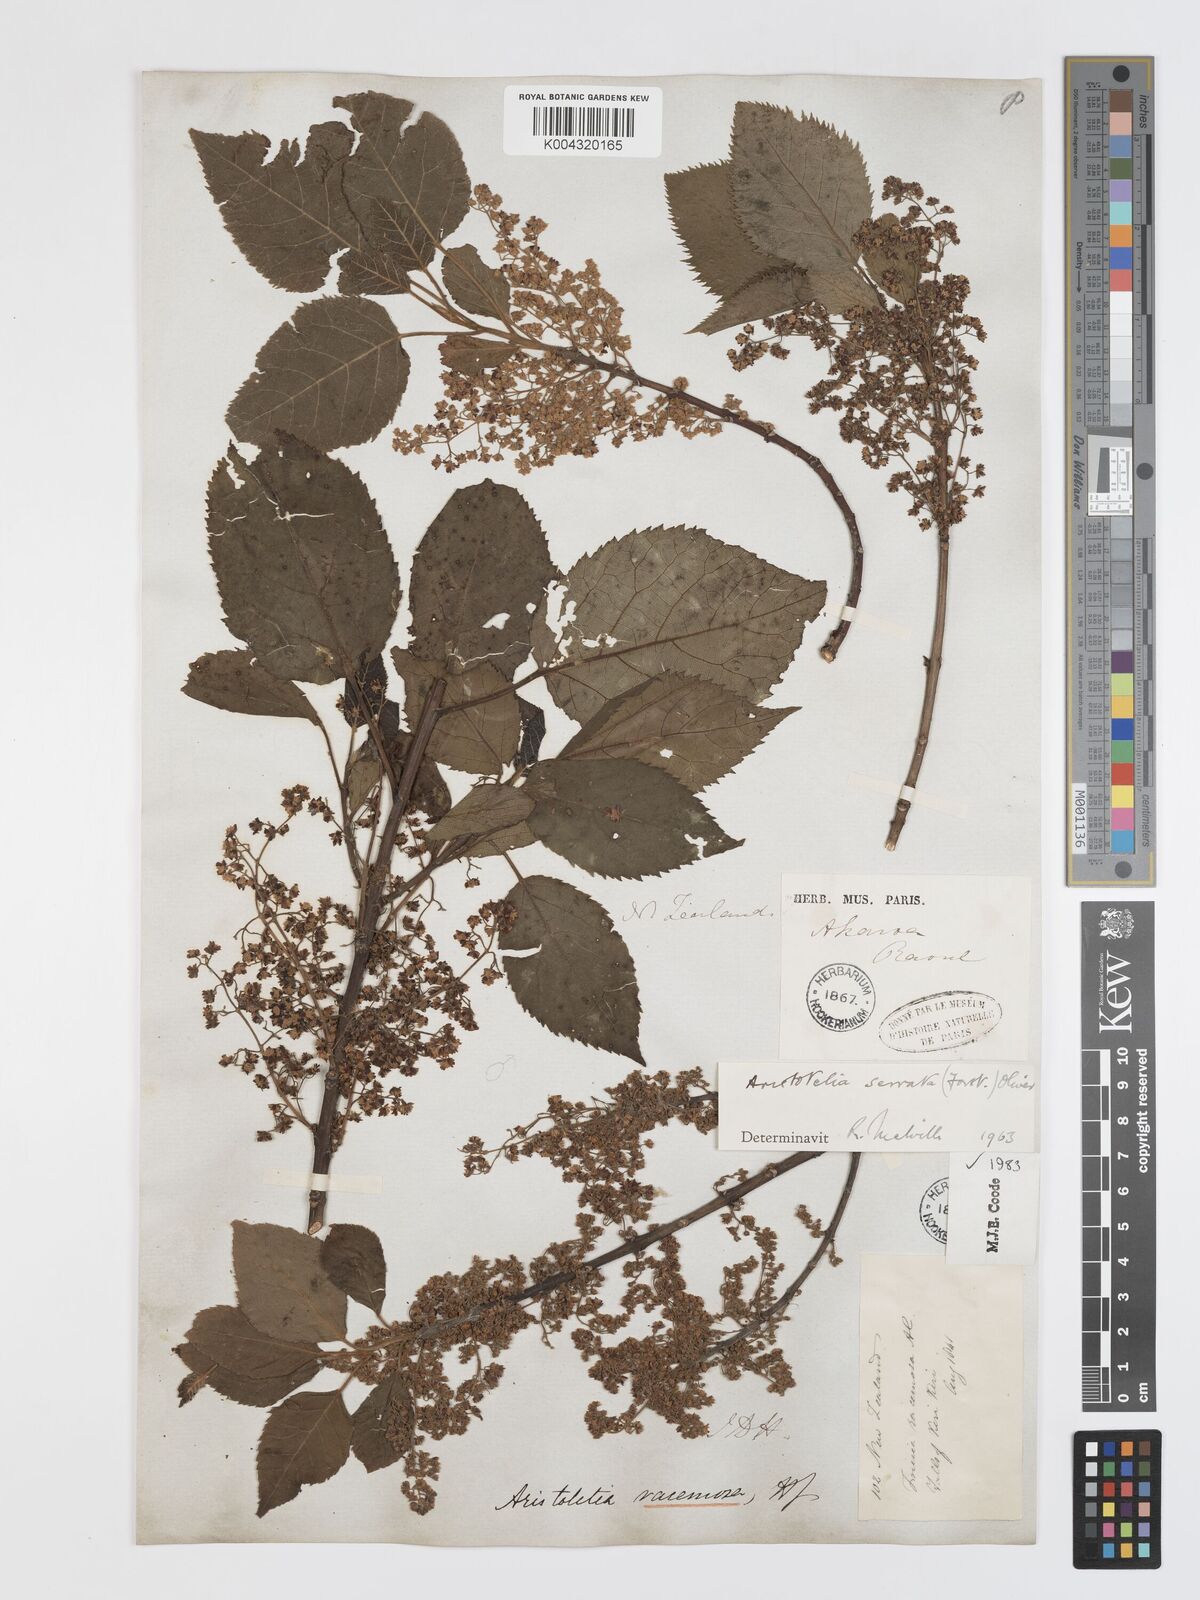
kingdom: Plantae
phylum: Tracheophyta
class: Magnoliopsida
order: Oxalidales
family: Elaeocarpaceae
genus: Aristotelia
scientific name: Aristotelia serrata
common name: New zealand wineberry
